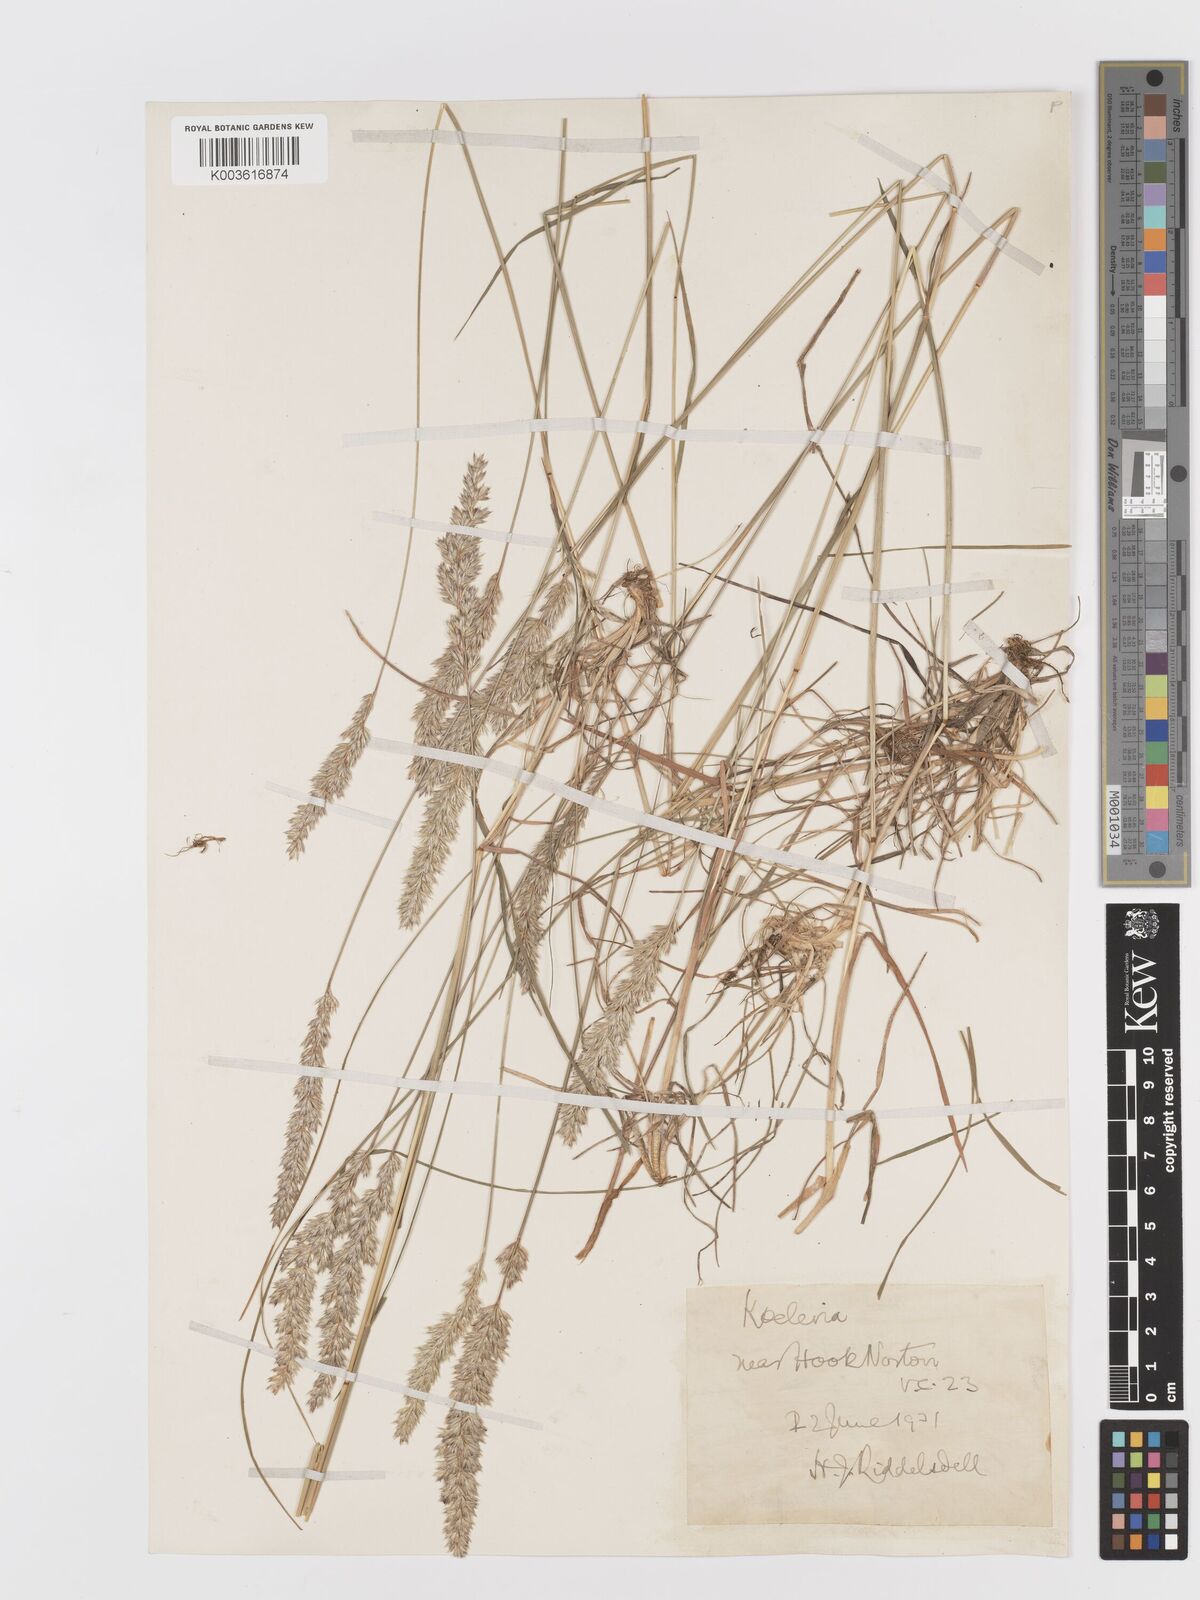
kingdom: Plantae
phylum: Tracheophyta
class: Liliopsida
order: Poales
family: Poaceae
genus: Koeleria
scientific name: Koeleria macrantha
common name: Crested hair-grass
